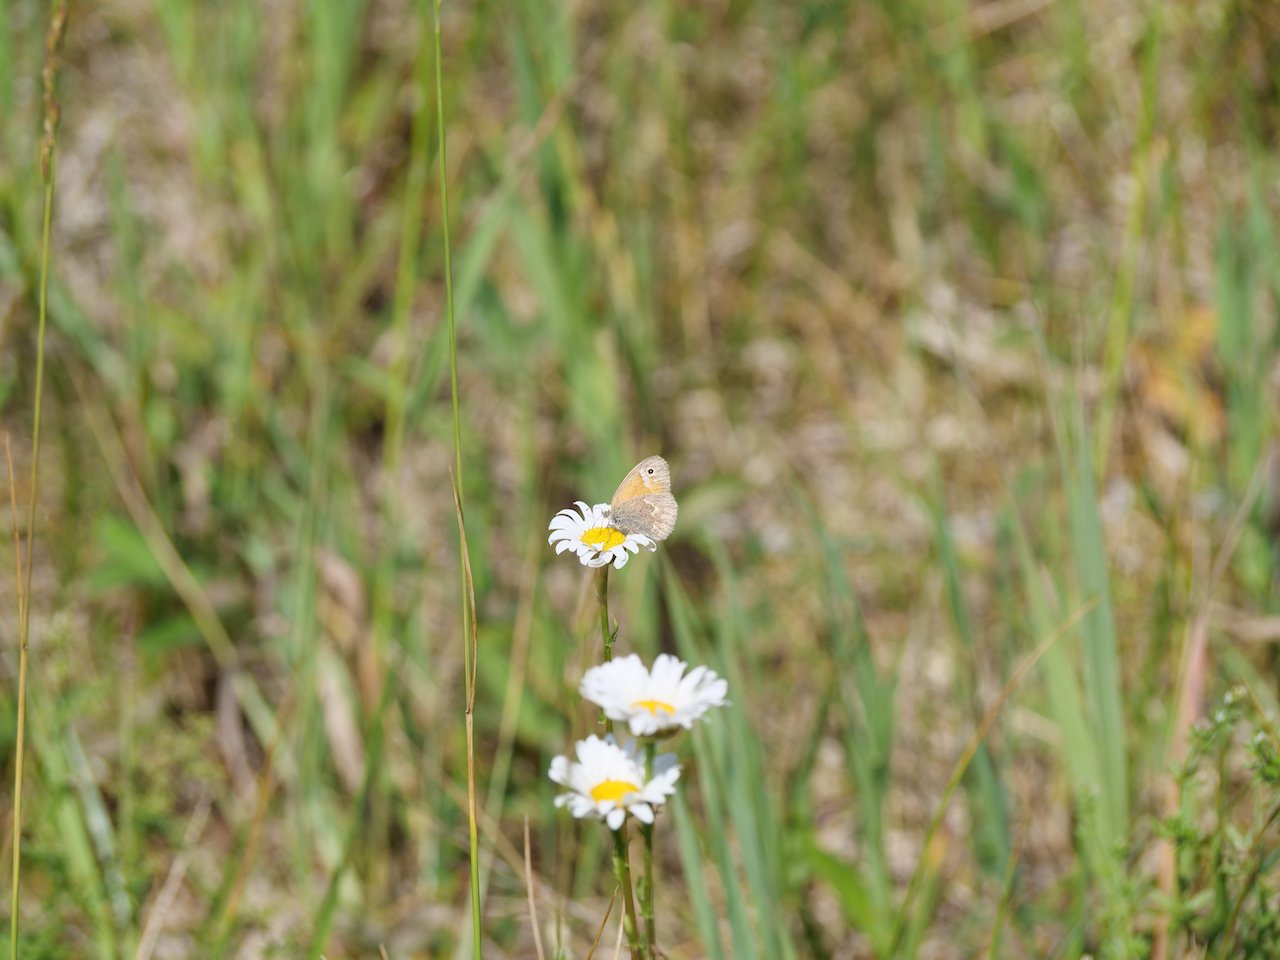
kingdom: Animalia
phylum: Arthropoda
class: Insecta
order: Lepidoptera
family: Nymphalidae
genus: Coenonympha
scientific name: Coenonympha tullia
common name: Large Heath
